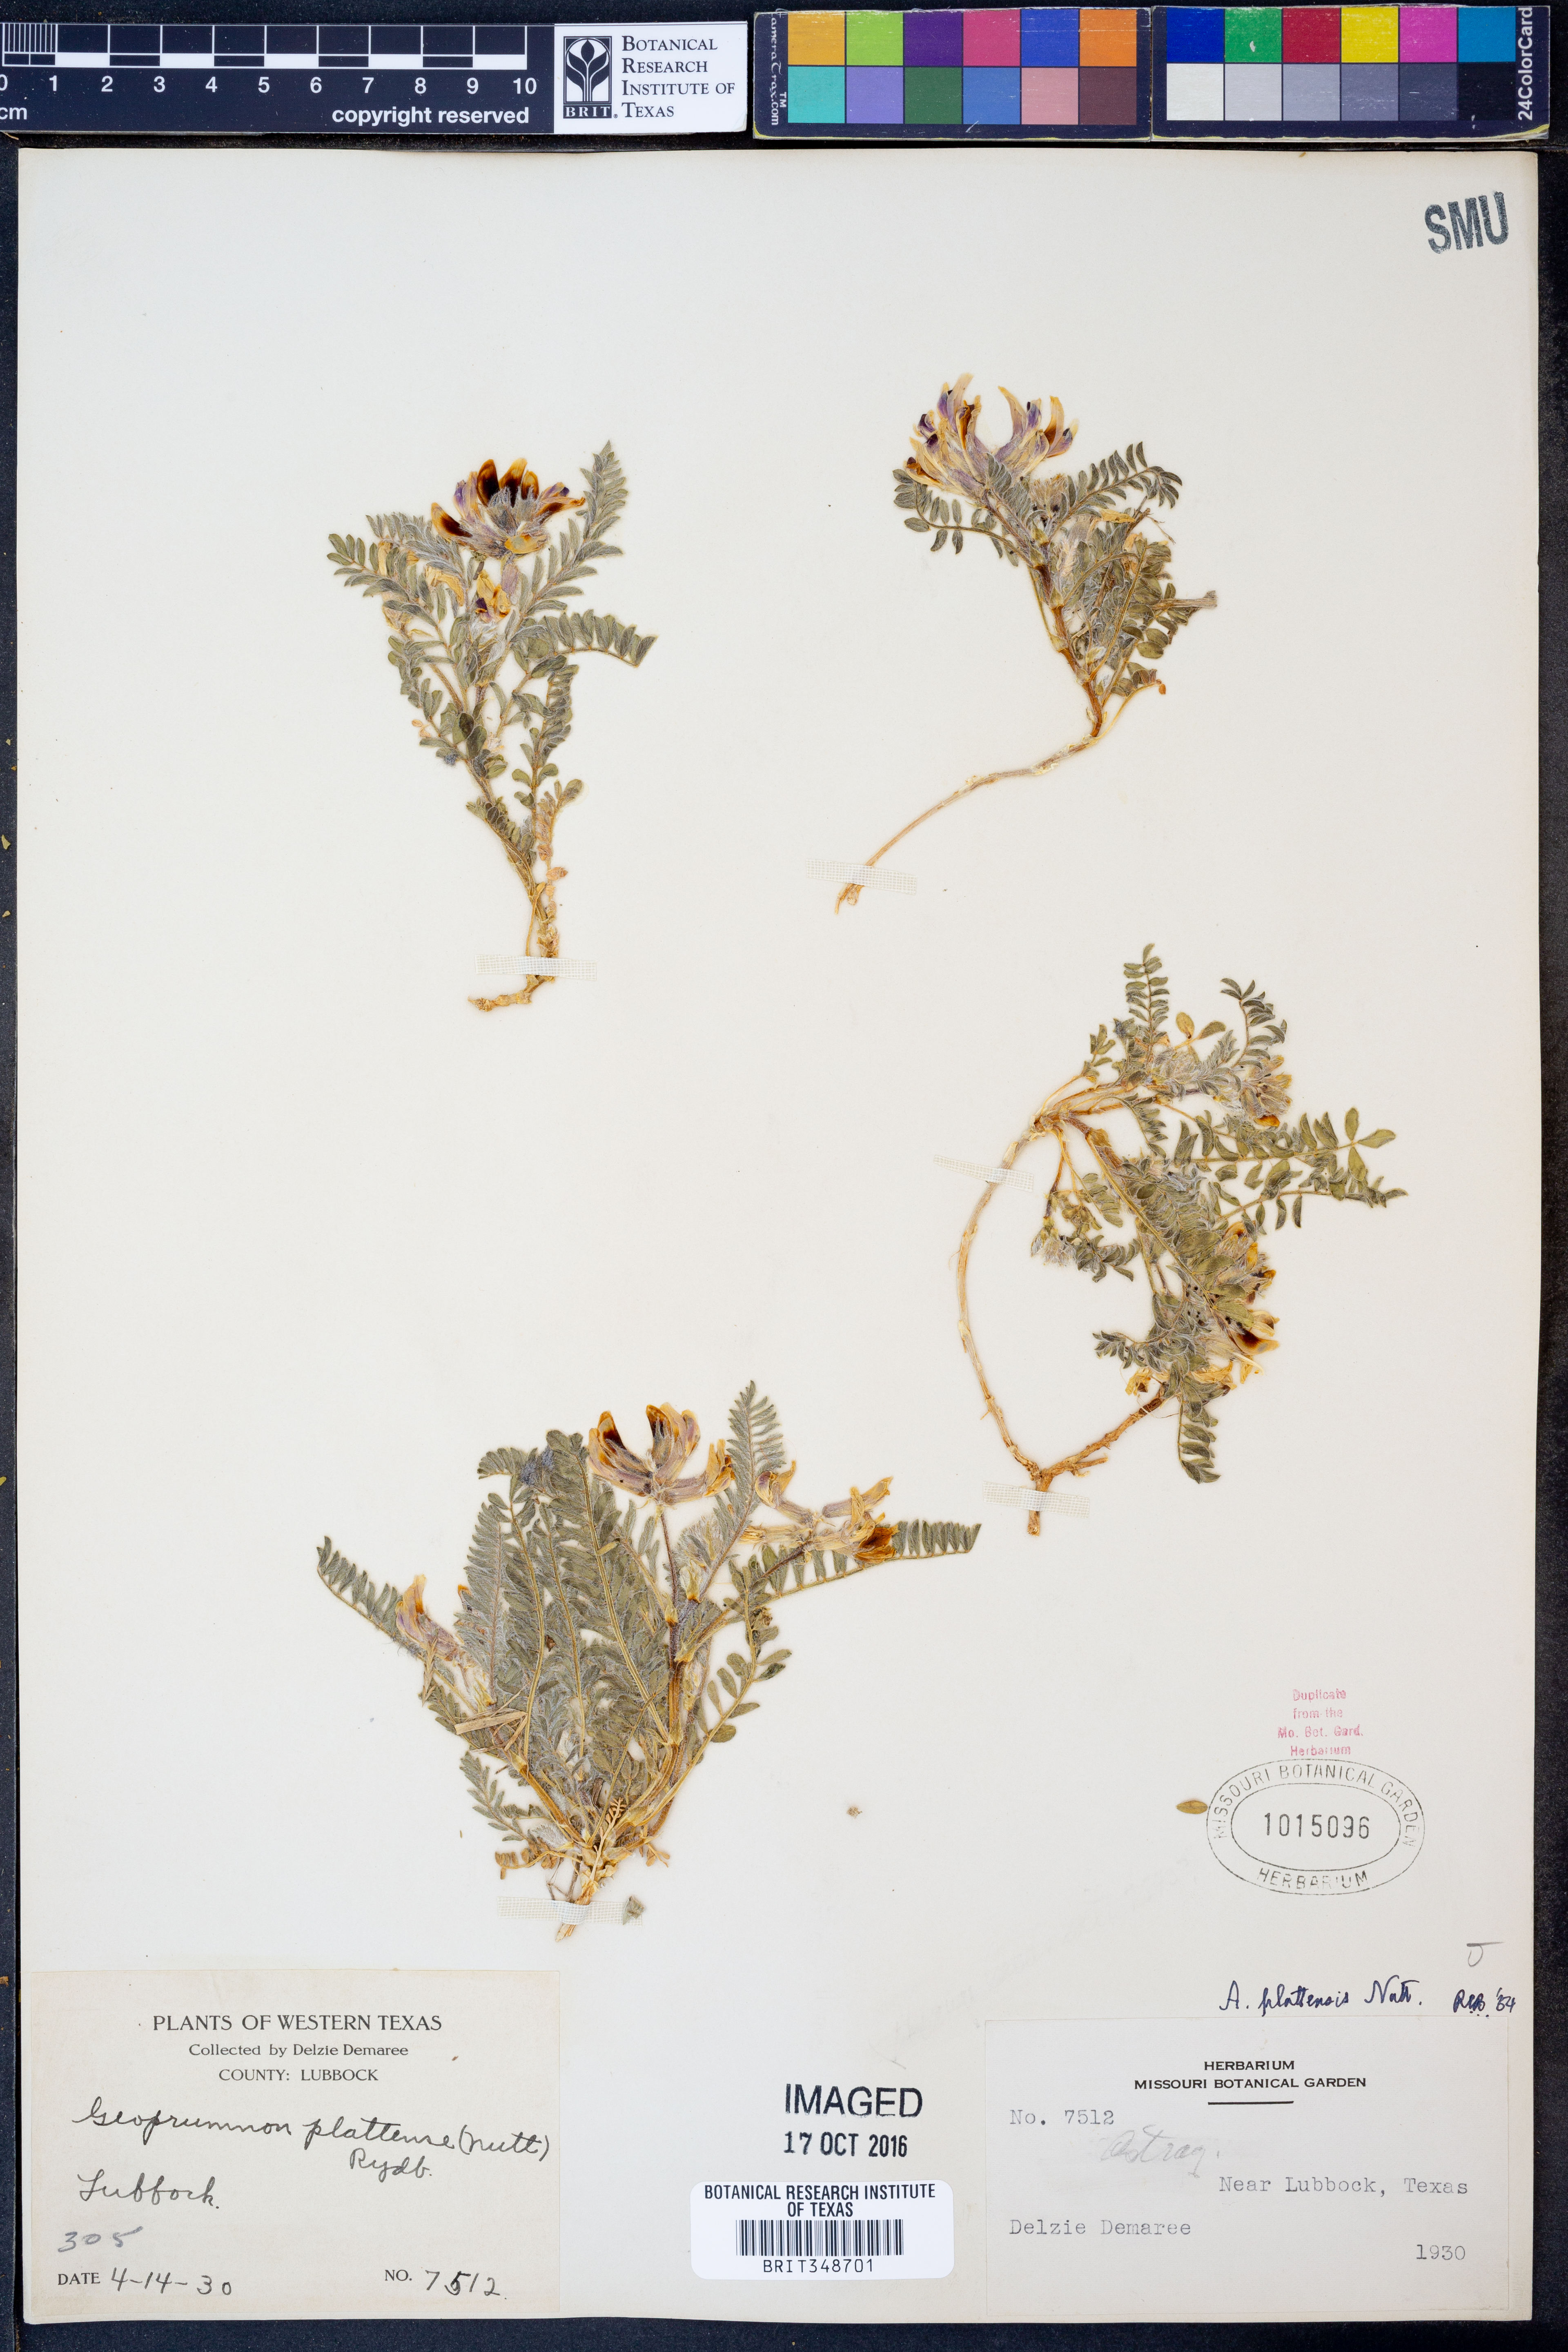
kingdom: Plantae
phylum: Tracheophyta
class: Magnoliopsida
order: Fabales
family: Fabaceae
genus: Astragalus
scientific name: Astragalus plattensis
